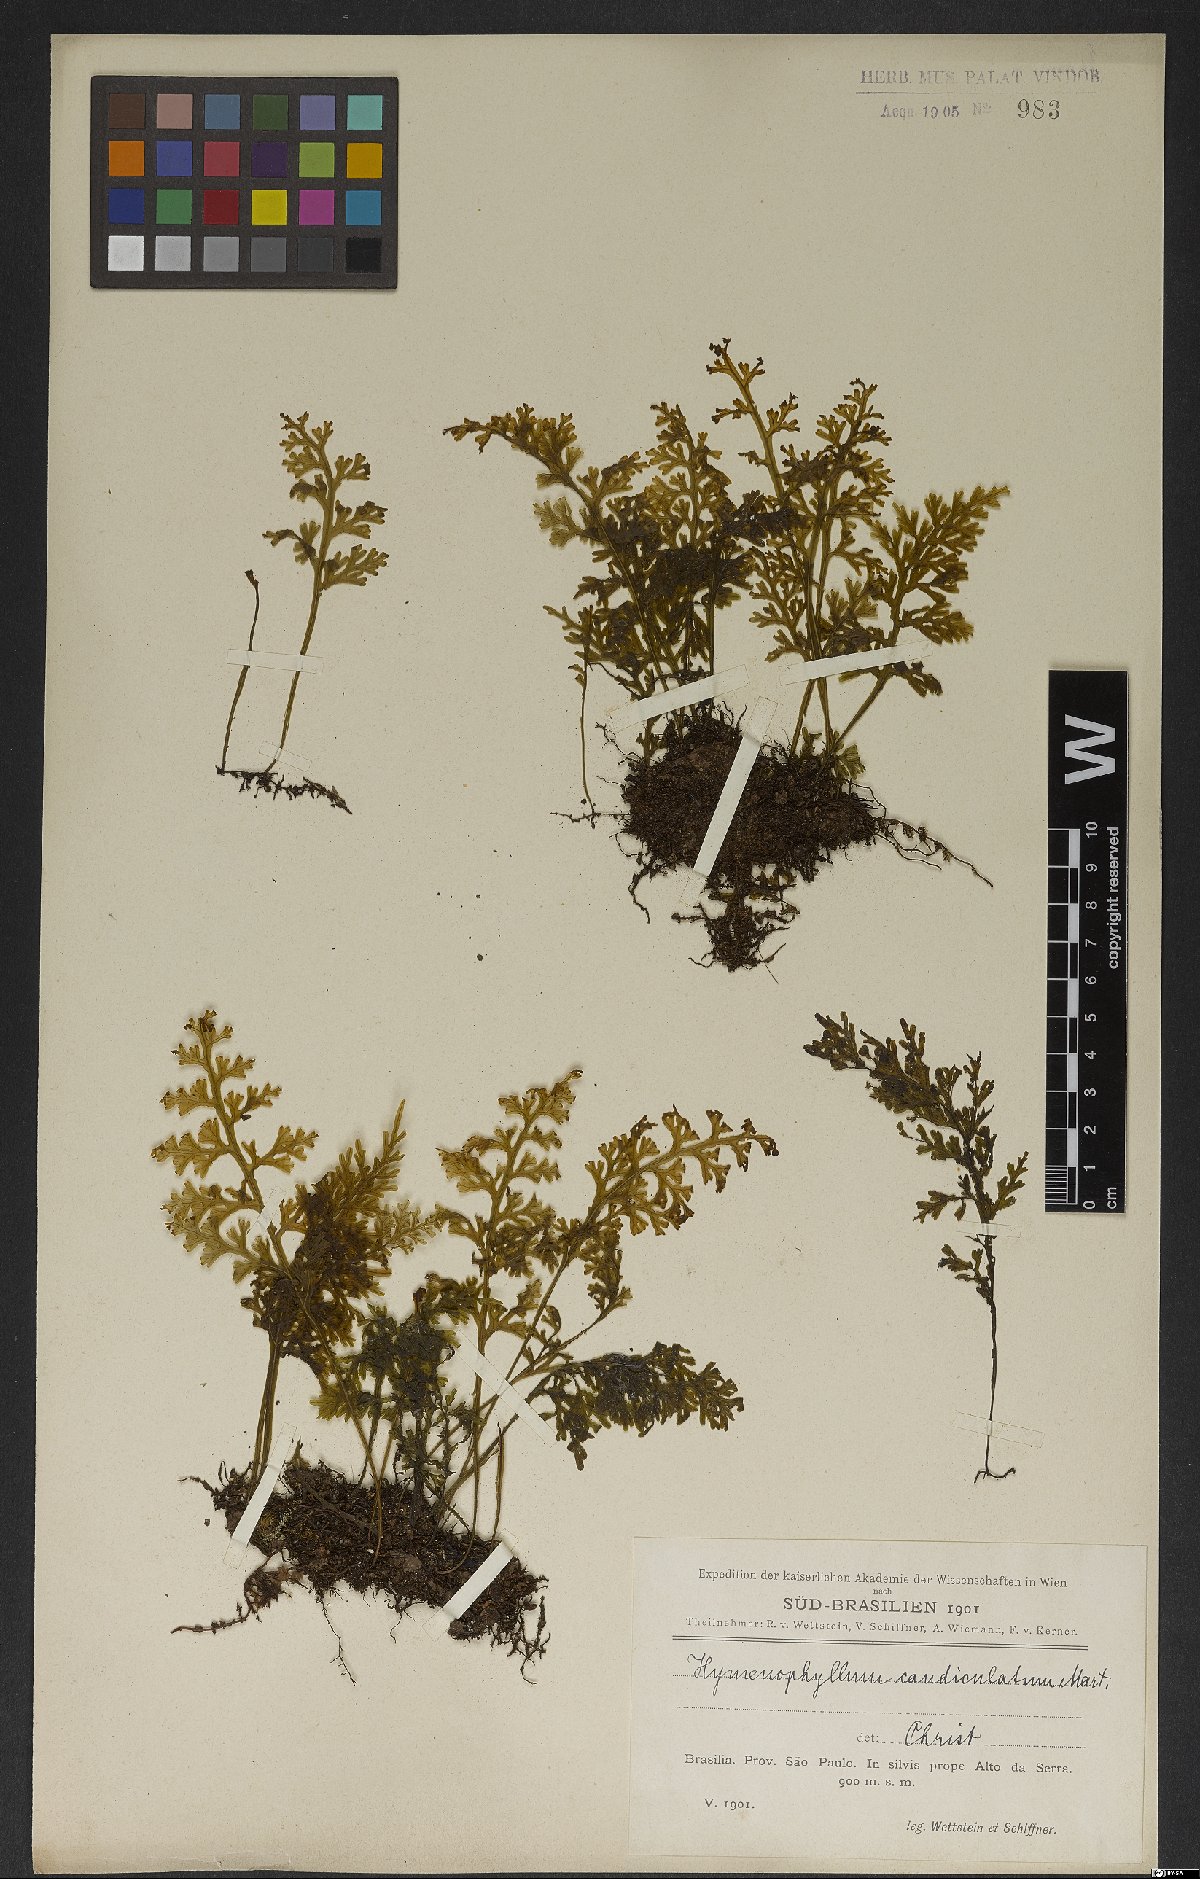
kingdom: Plantae
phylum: Tracheophyta
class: Polypodiopsida
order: Hymenophyllales
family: Hymenophyllaceae
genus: Hymenophyllum
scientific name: Hymenophyllum caudiculatum
